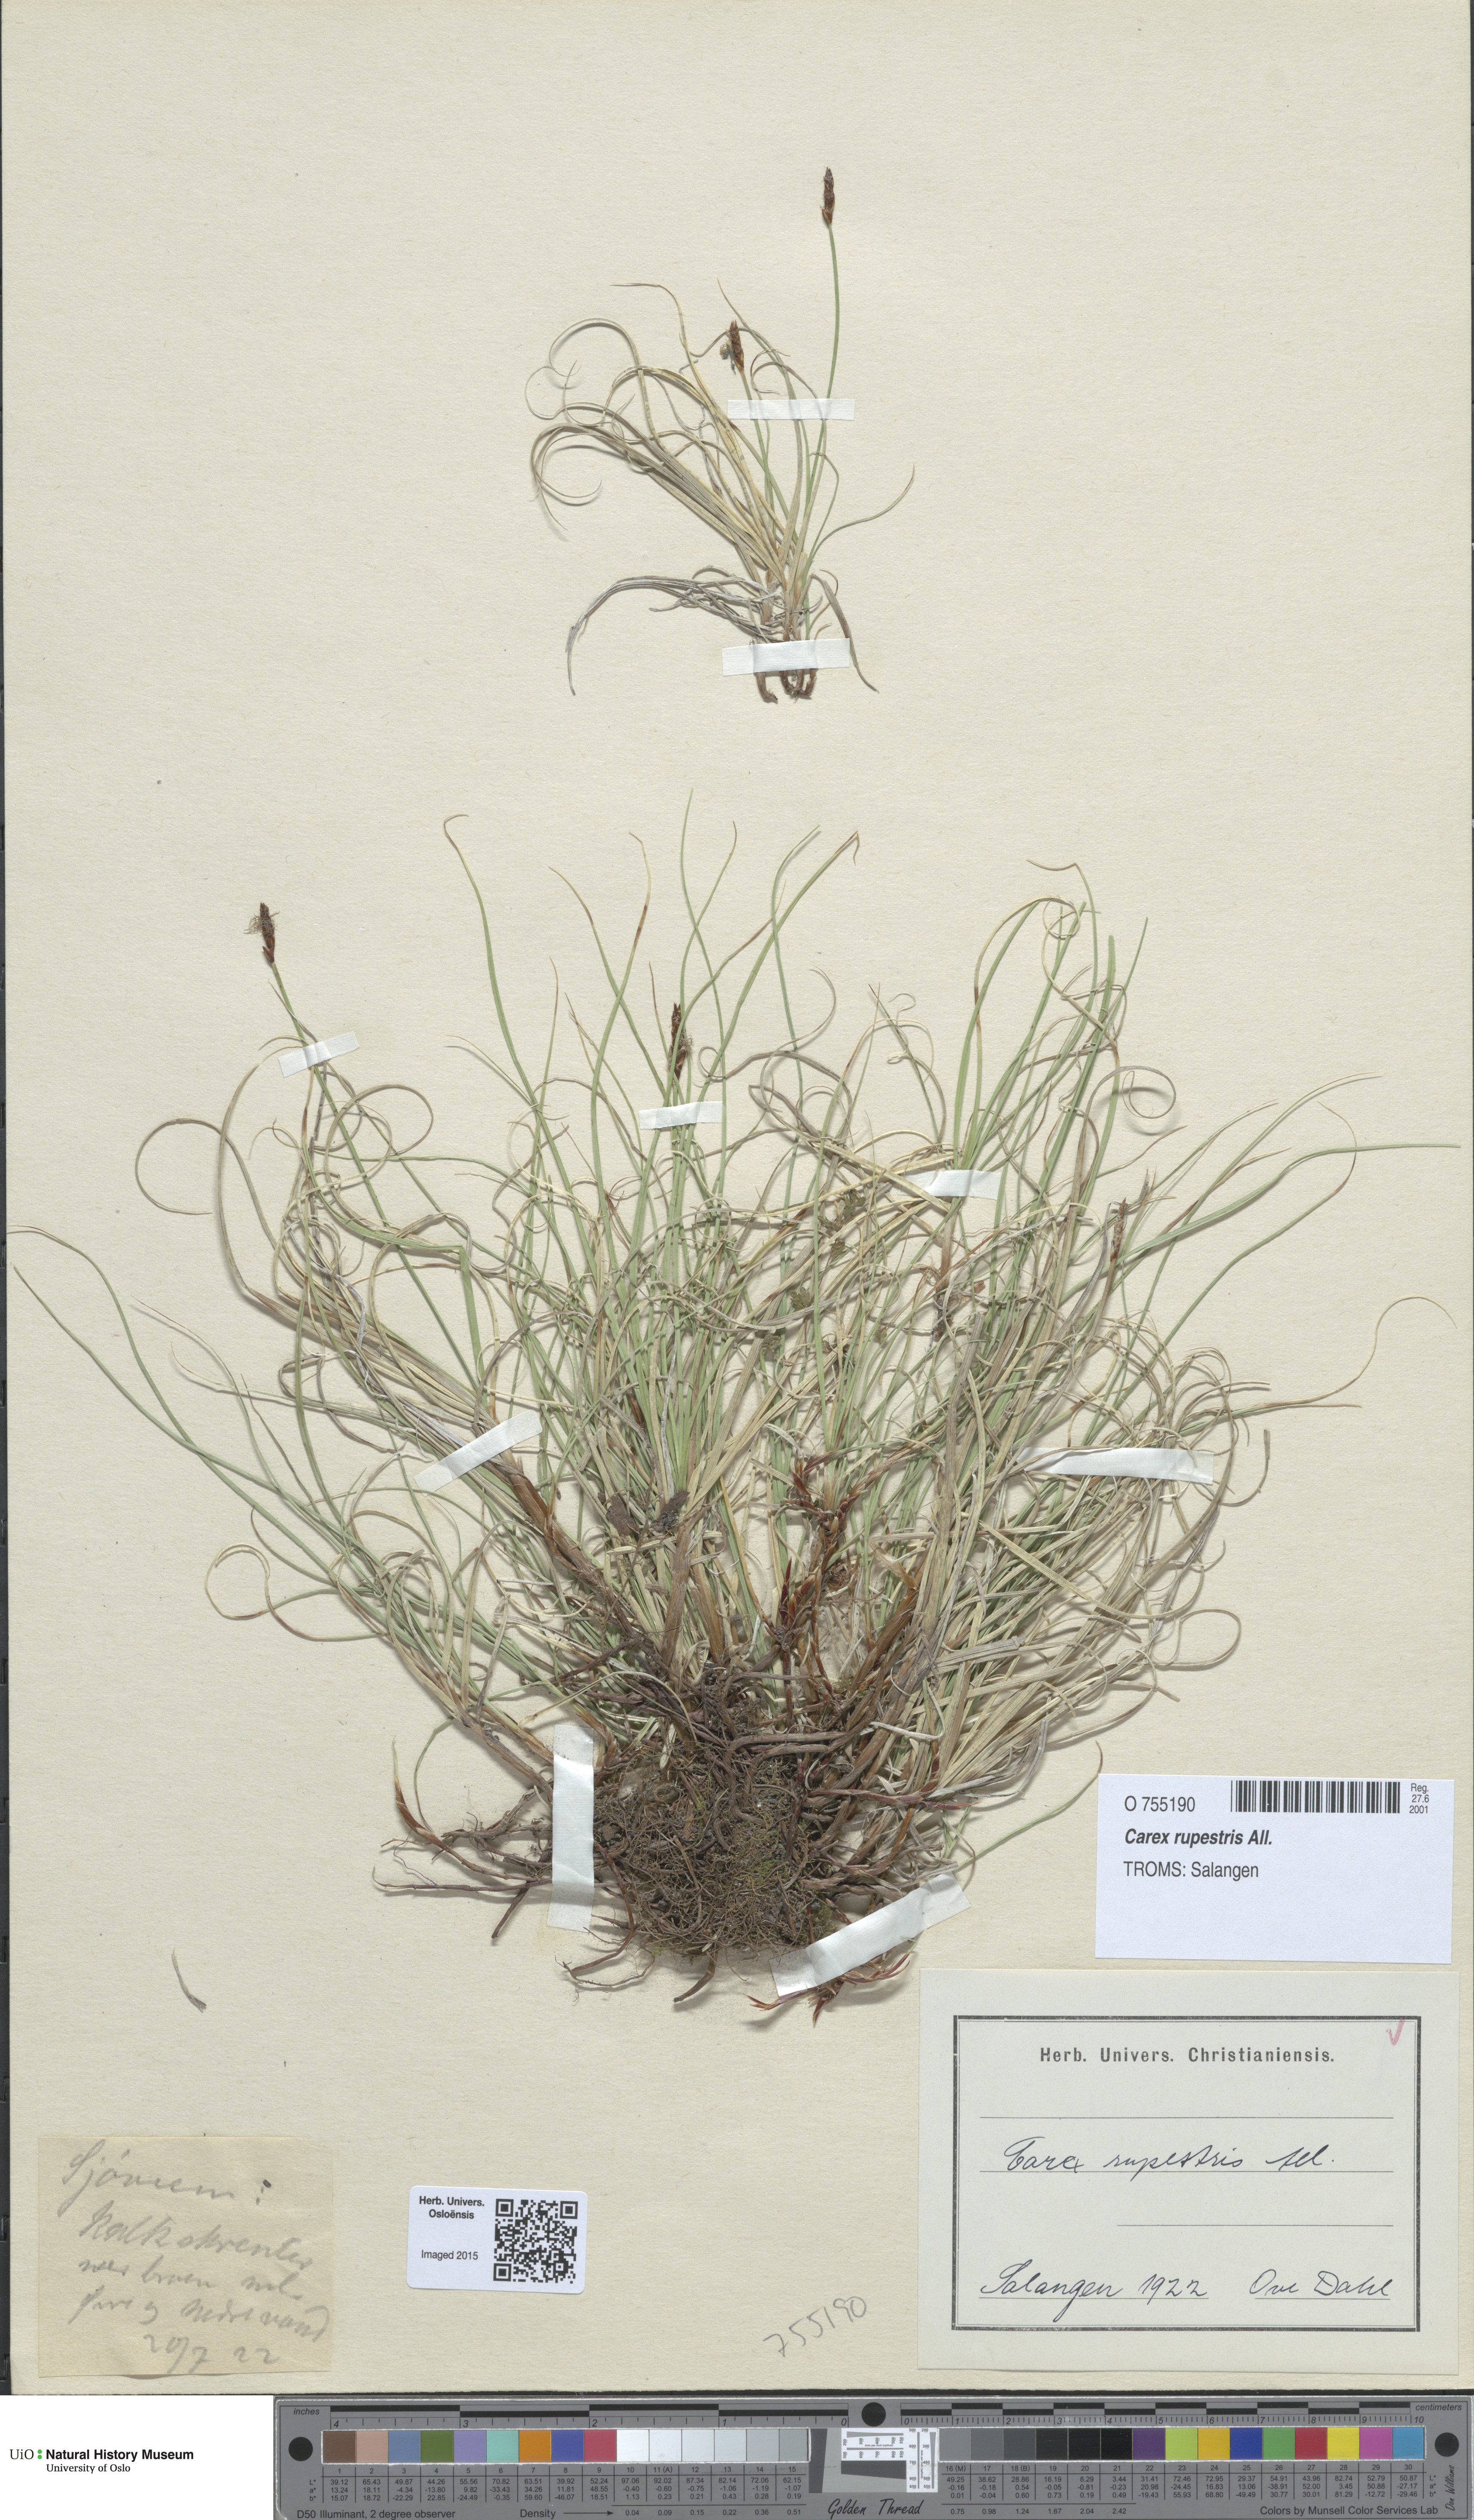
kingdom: Plantae
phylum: Tracheophyta
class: Liliopsida
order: Poales
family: Cyperaceae
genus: Carex
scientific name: Carex rupestris
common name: Rock sedge
